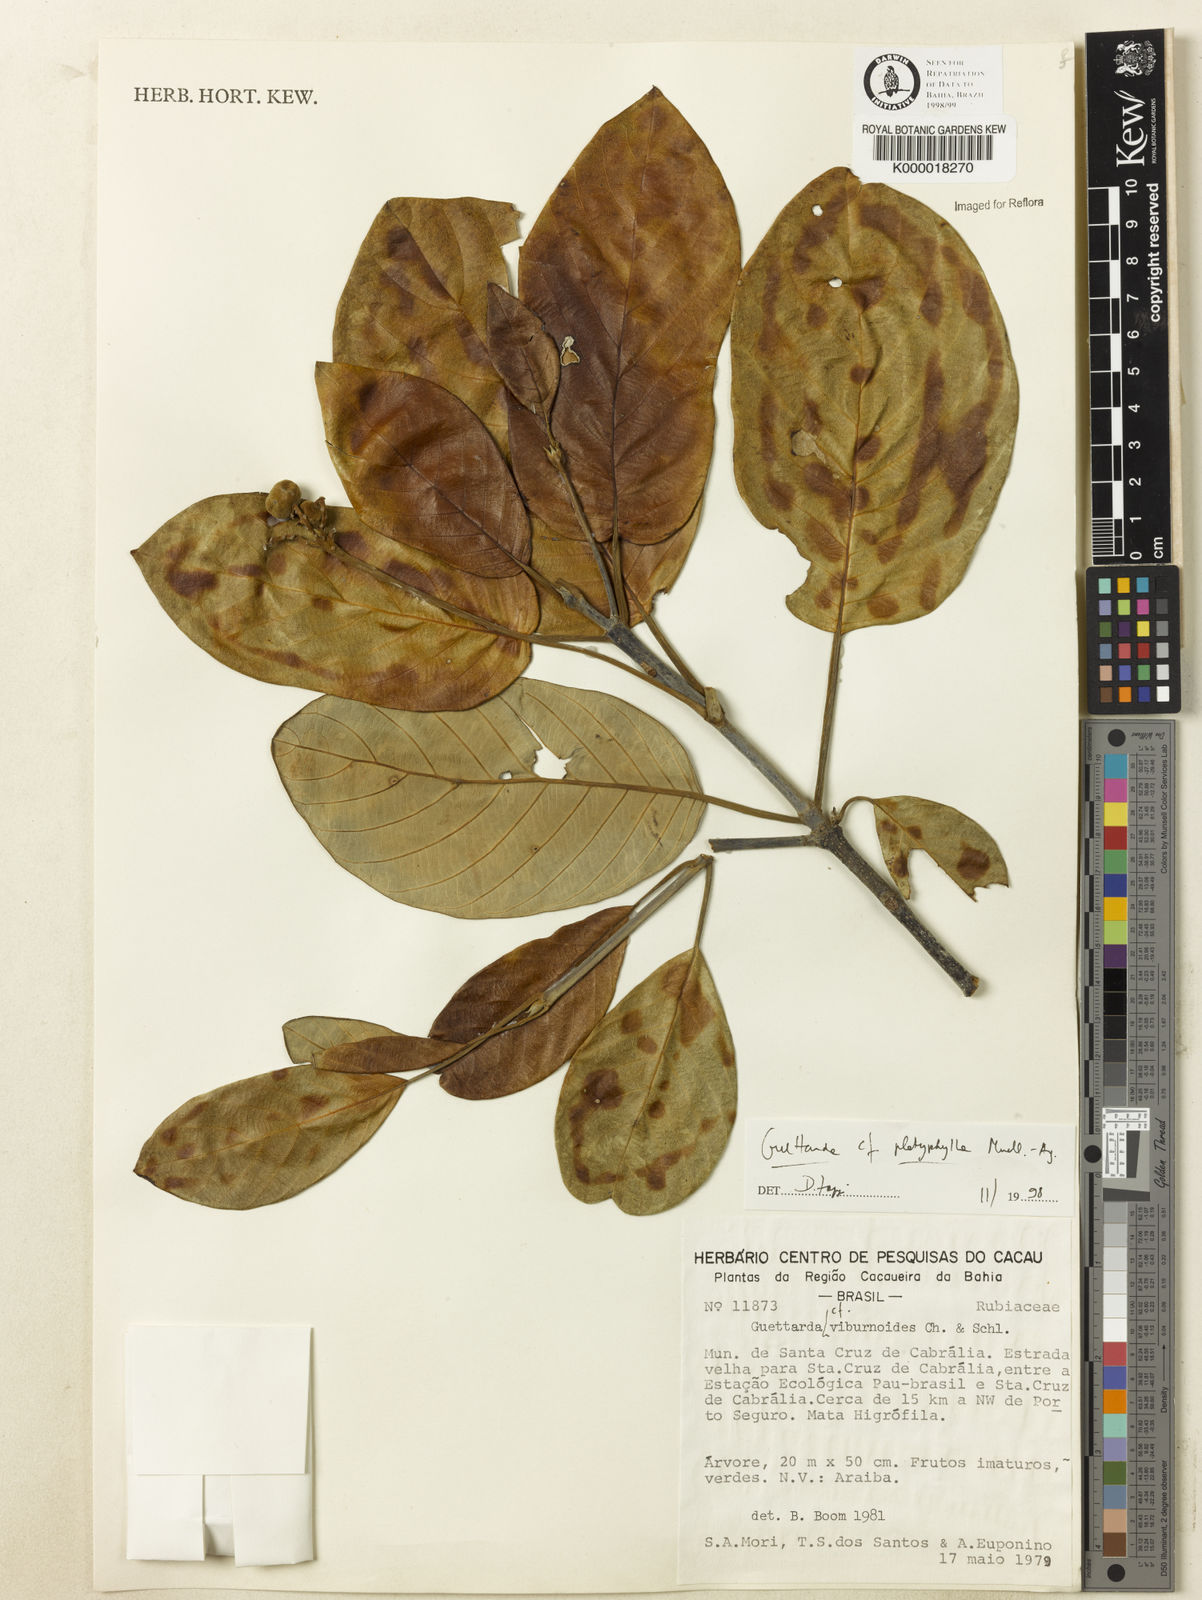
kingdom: Plantae
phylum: Tracheophyta
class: Magnoliopsida
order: Gentianales
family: Rubiaceae
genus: Guettarda
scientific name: Guettarda viburnoides
